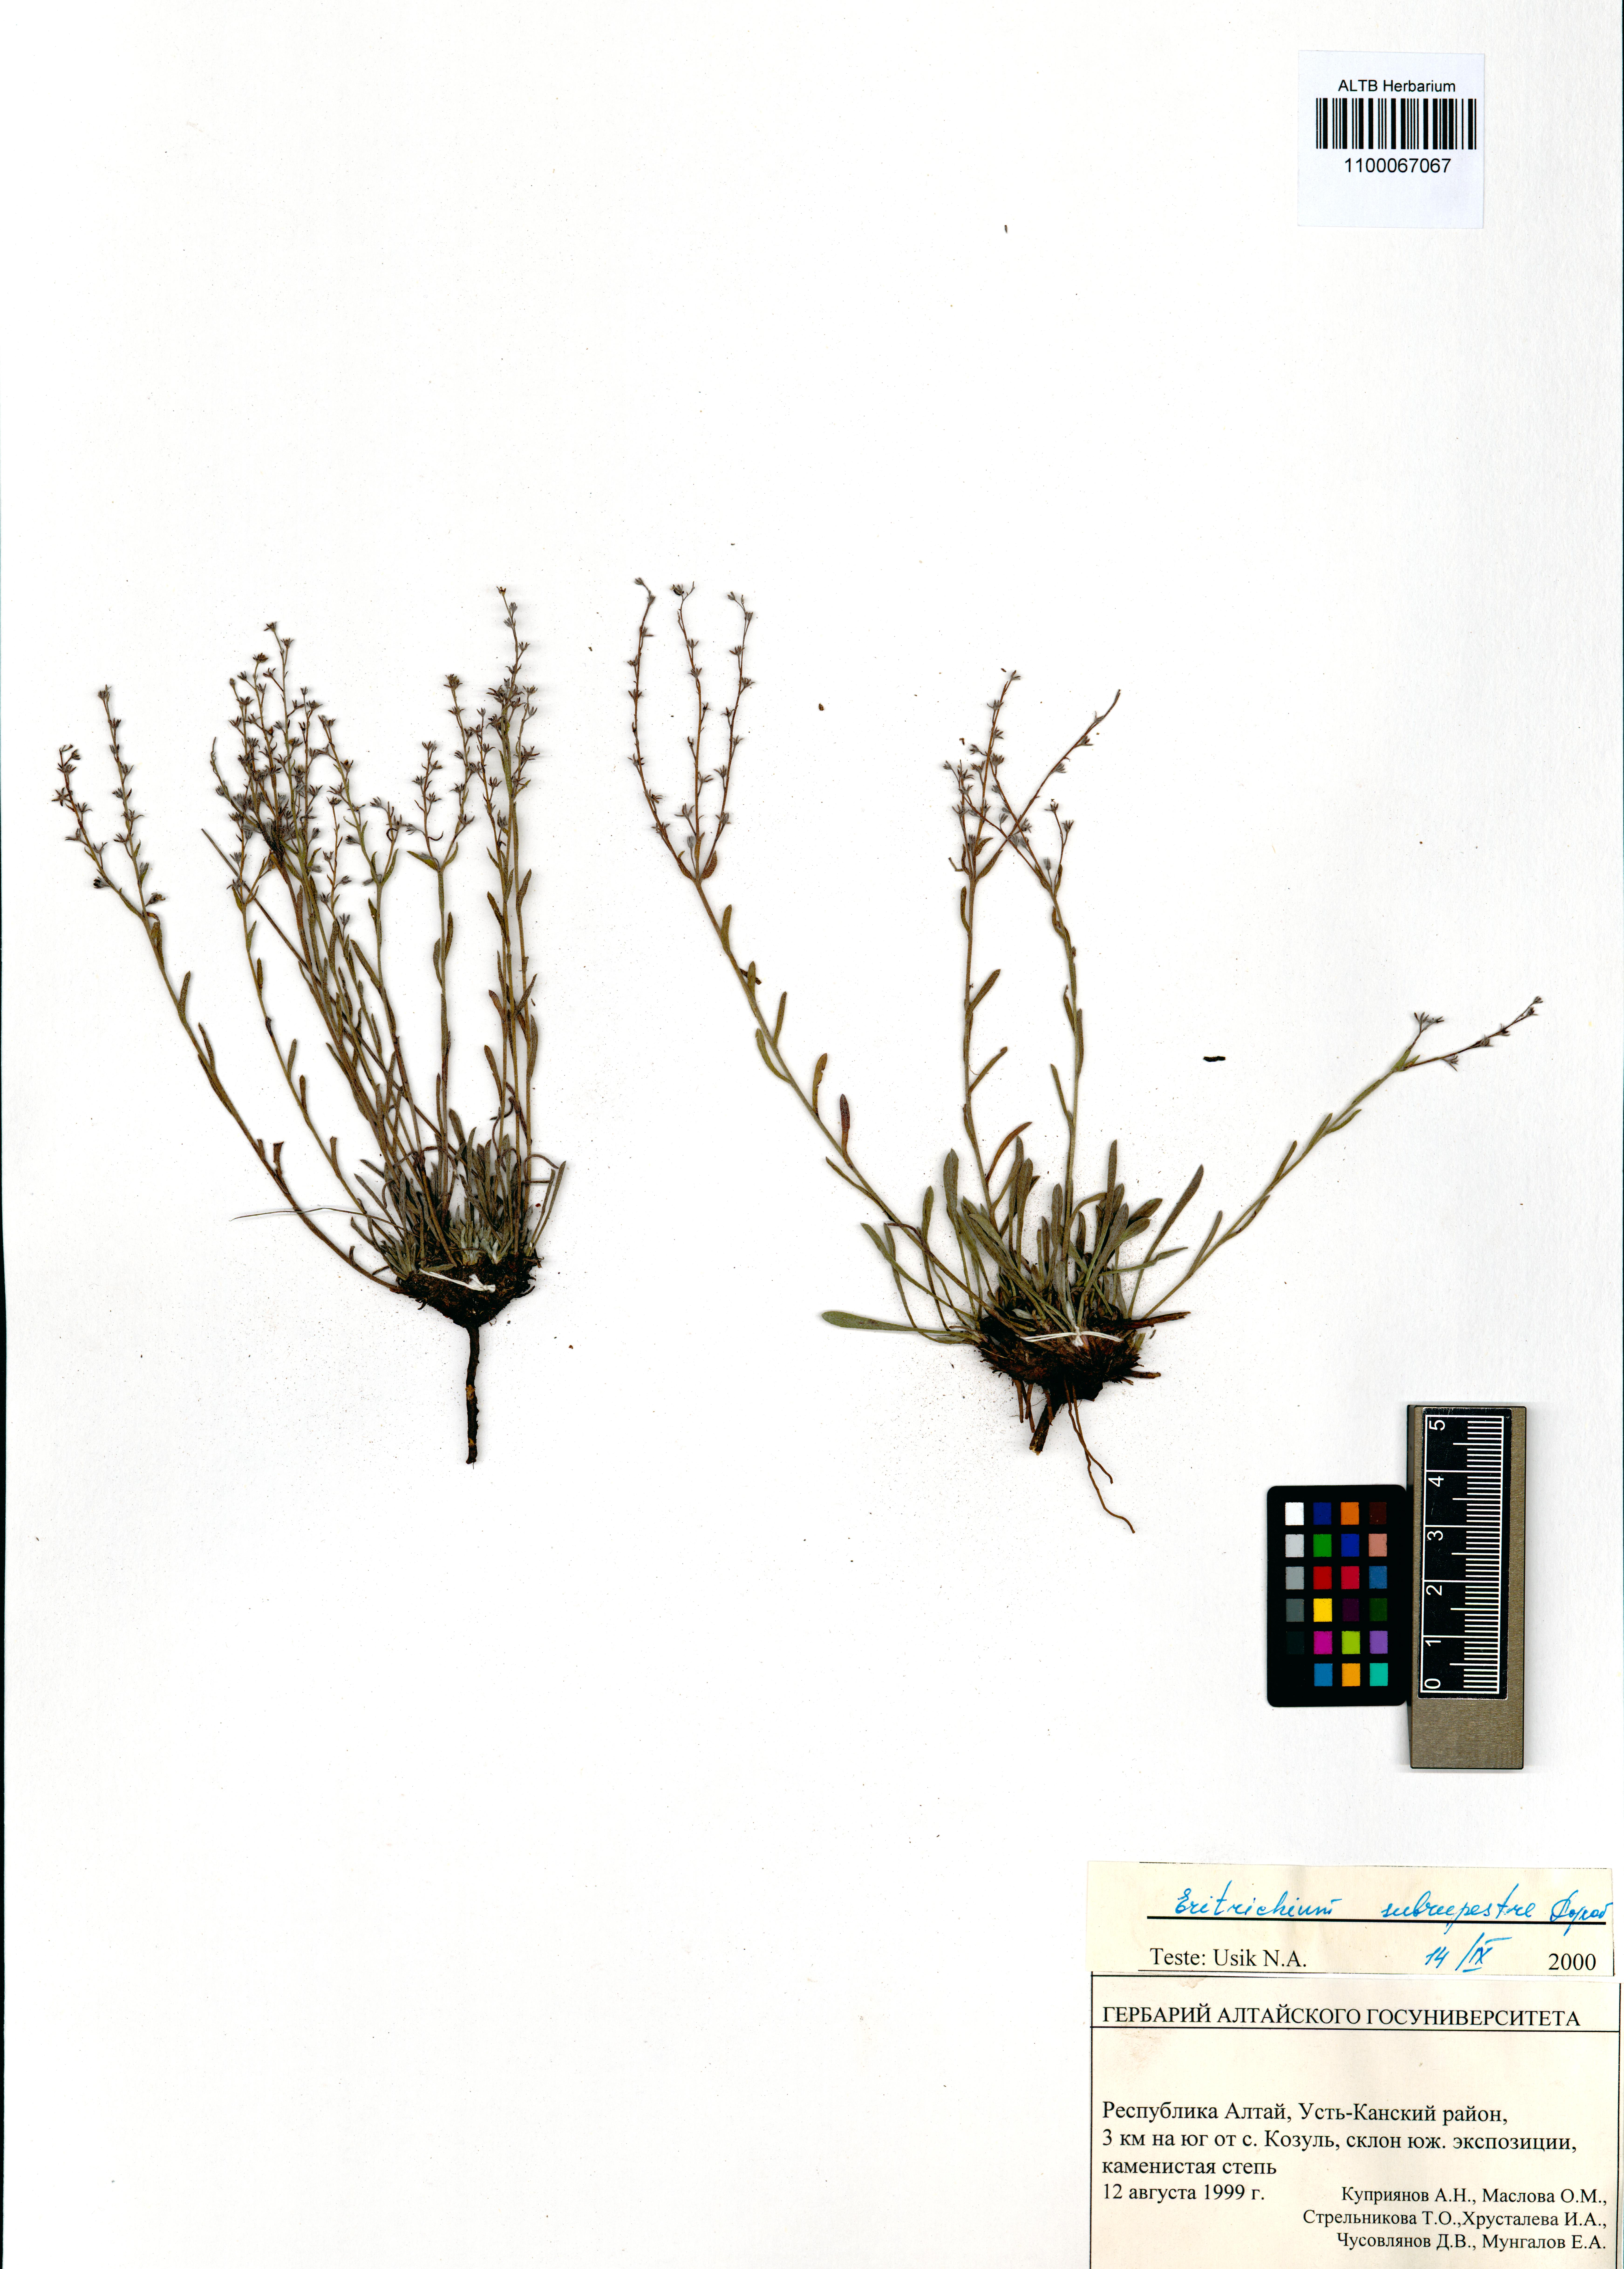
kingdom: Plantae
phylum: Tracheophyta
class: Magnoliopsida
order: Boraginales
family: Boraginaceae
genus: Eritrichium
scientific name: Eritrichium pauciflorum
